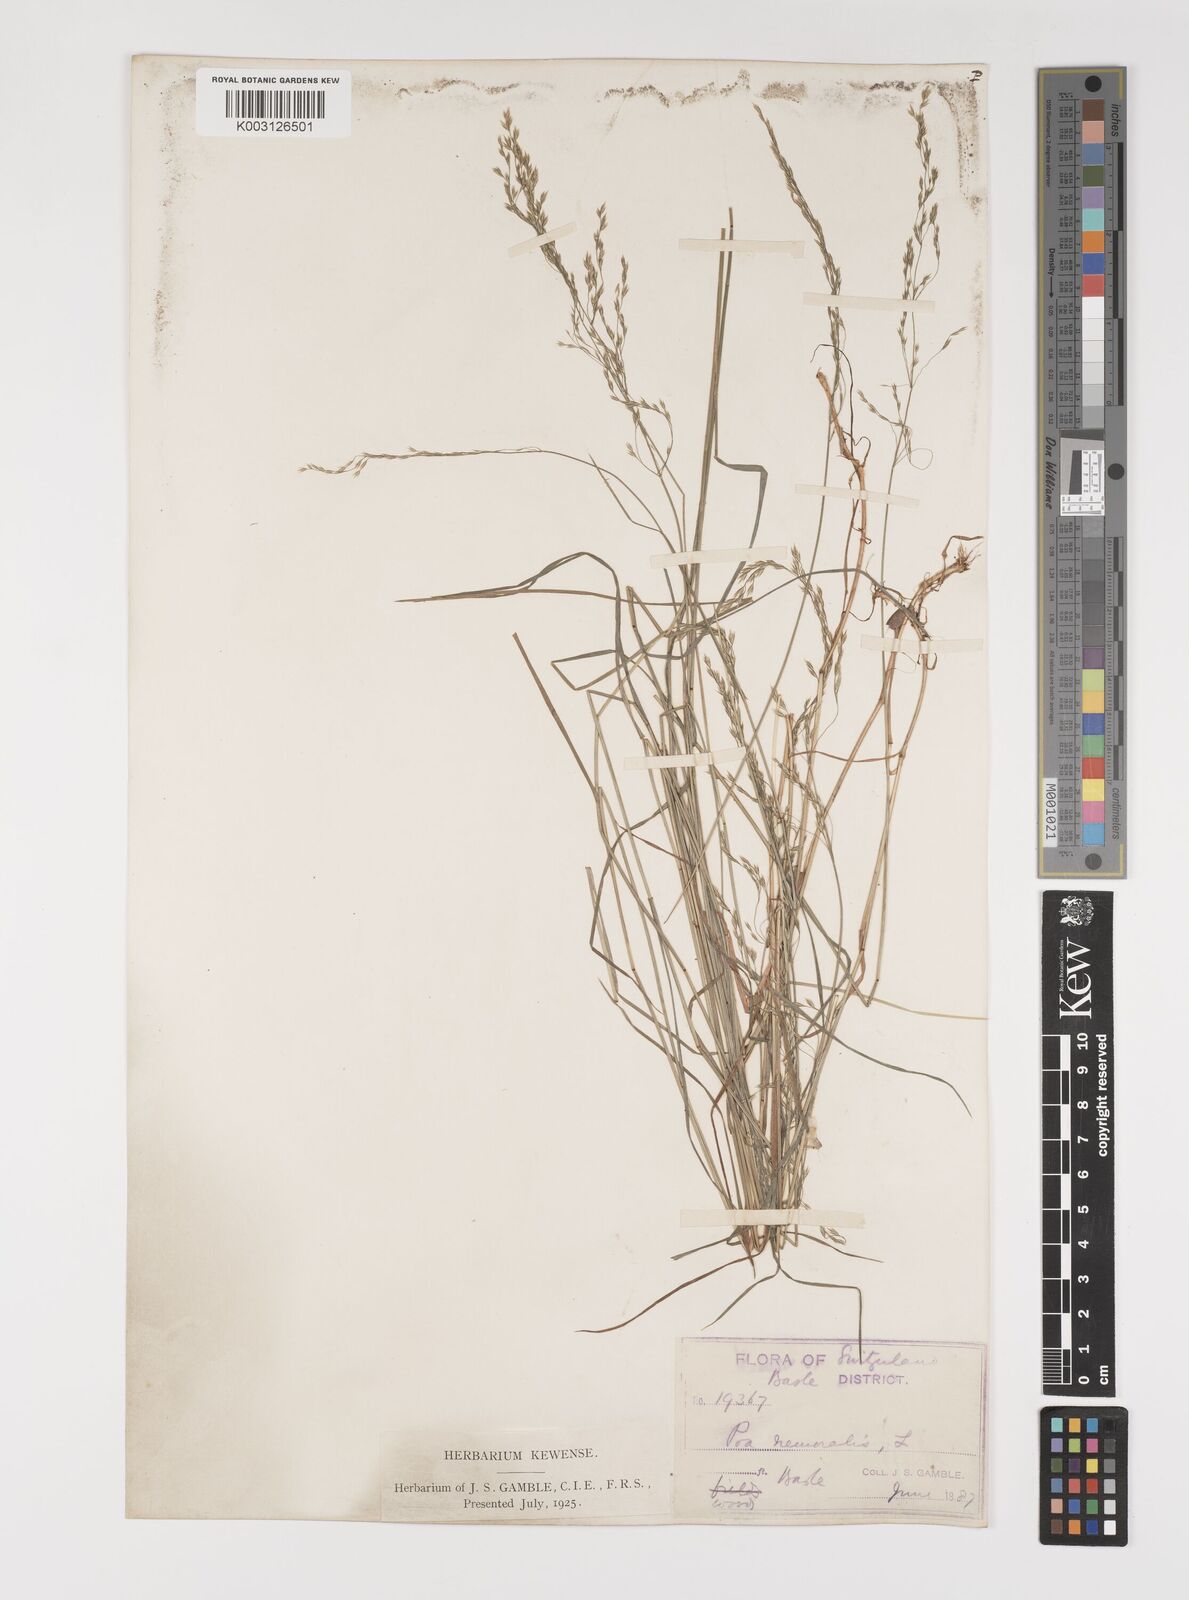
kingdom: Plantae
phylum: Tracheophyta
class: Liliopsida
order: Poales
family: Poaceae
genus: Poa
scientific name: Poa nemoralis
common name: Wood bluegrass
